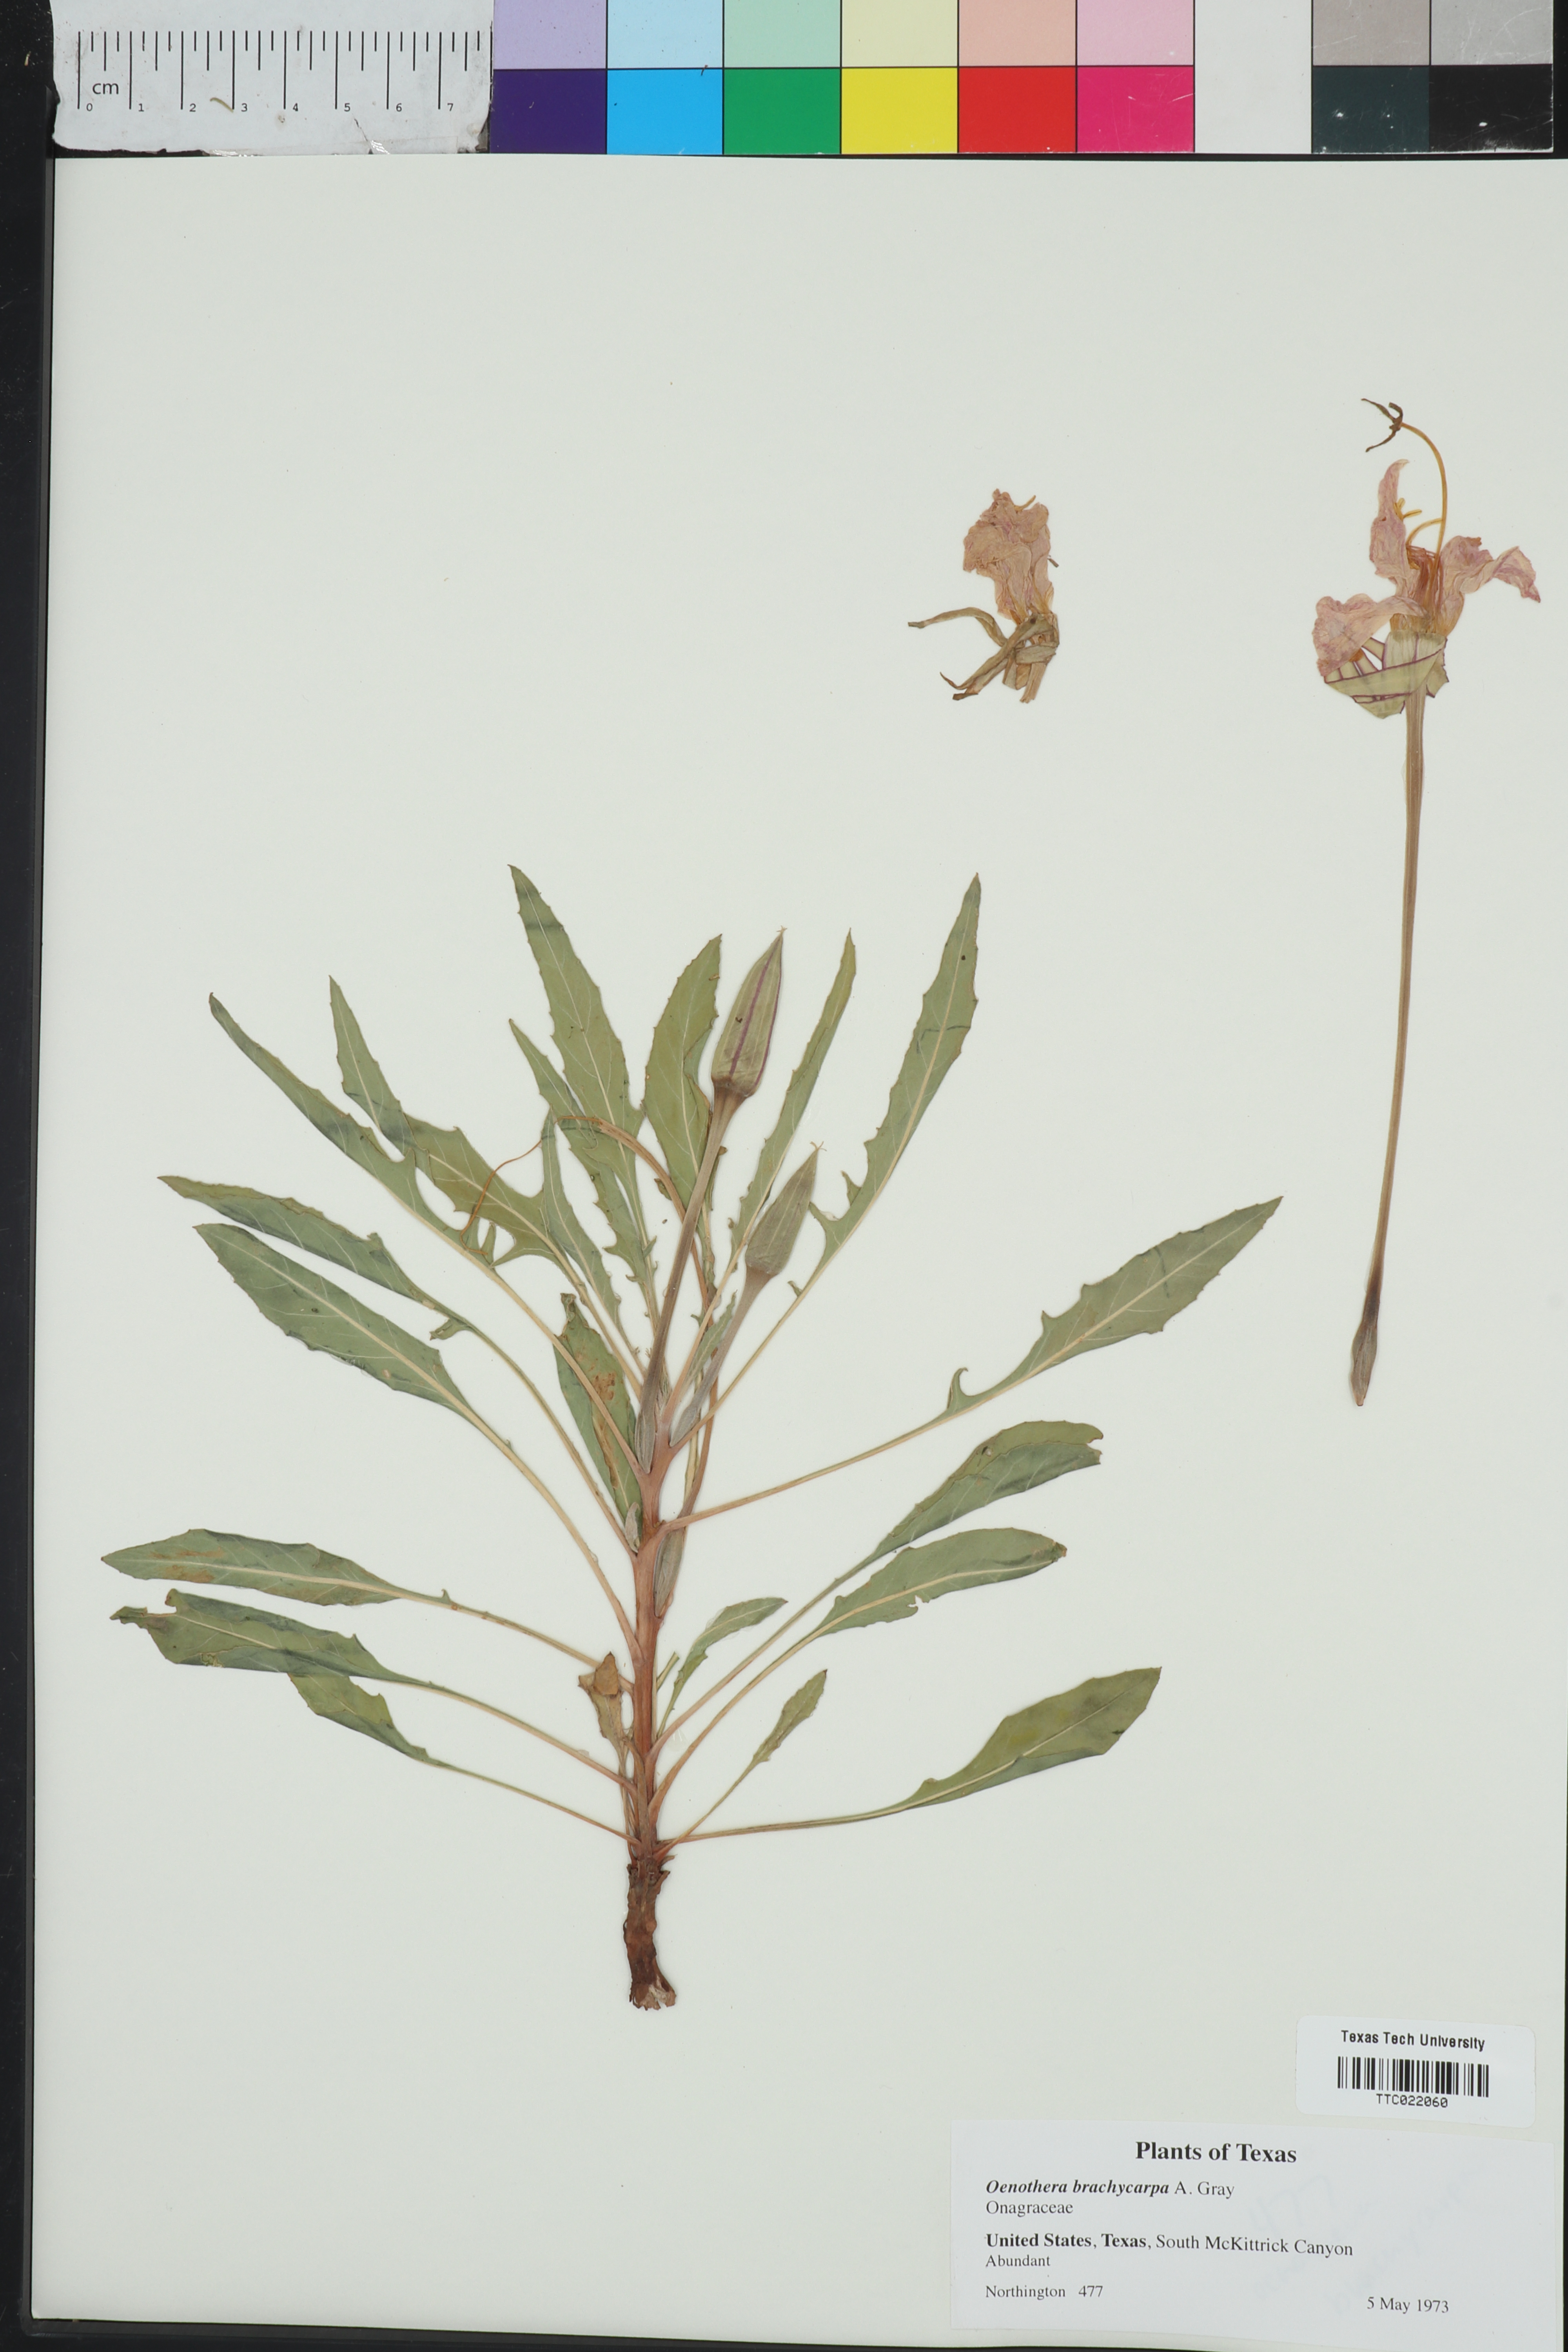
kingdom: Plantae
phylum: Tracheophyta
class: Magnoliopsida
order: Myrtales
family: Onagraceae
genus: Oenothera
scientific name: Oenothera brachycarpa
